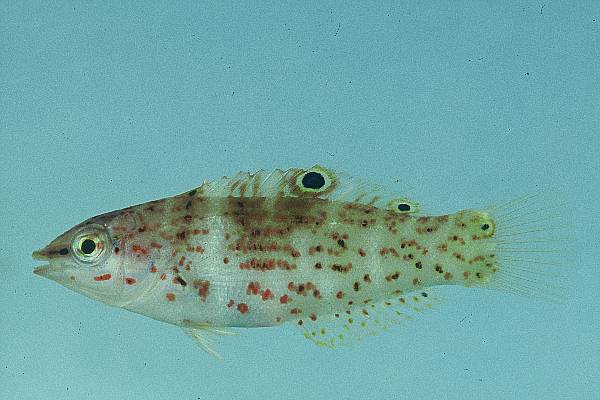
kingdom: Animalia
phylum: Chordata
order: Perciformes
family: Labridae
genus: Coris
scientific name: Coris batuensis
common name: Batu coris
